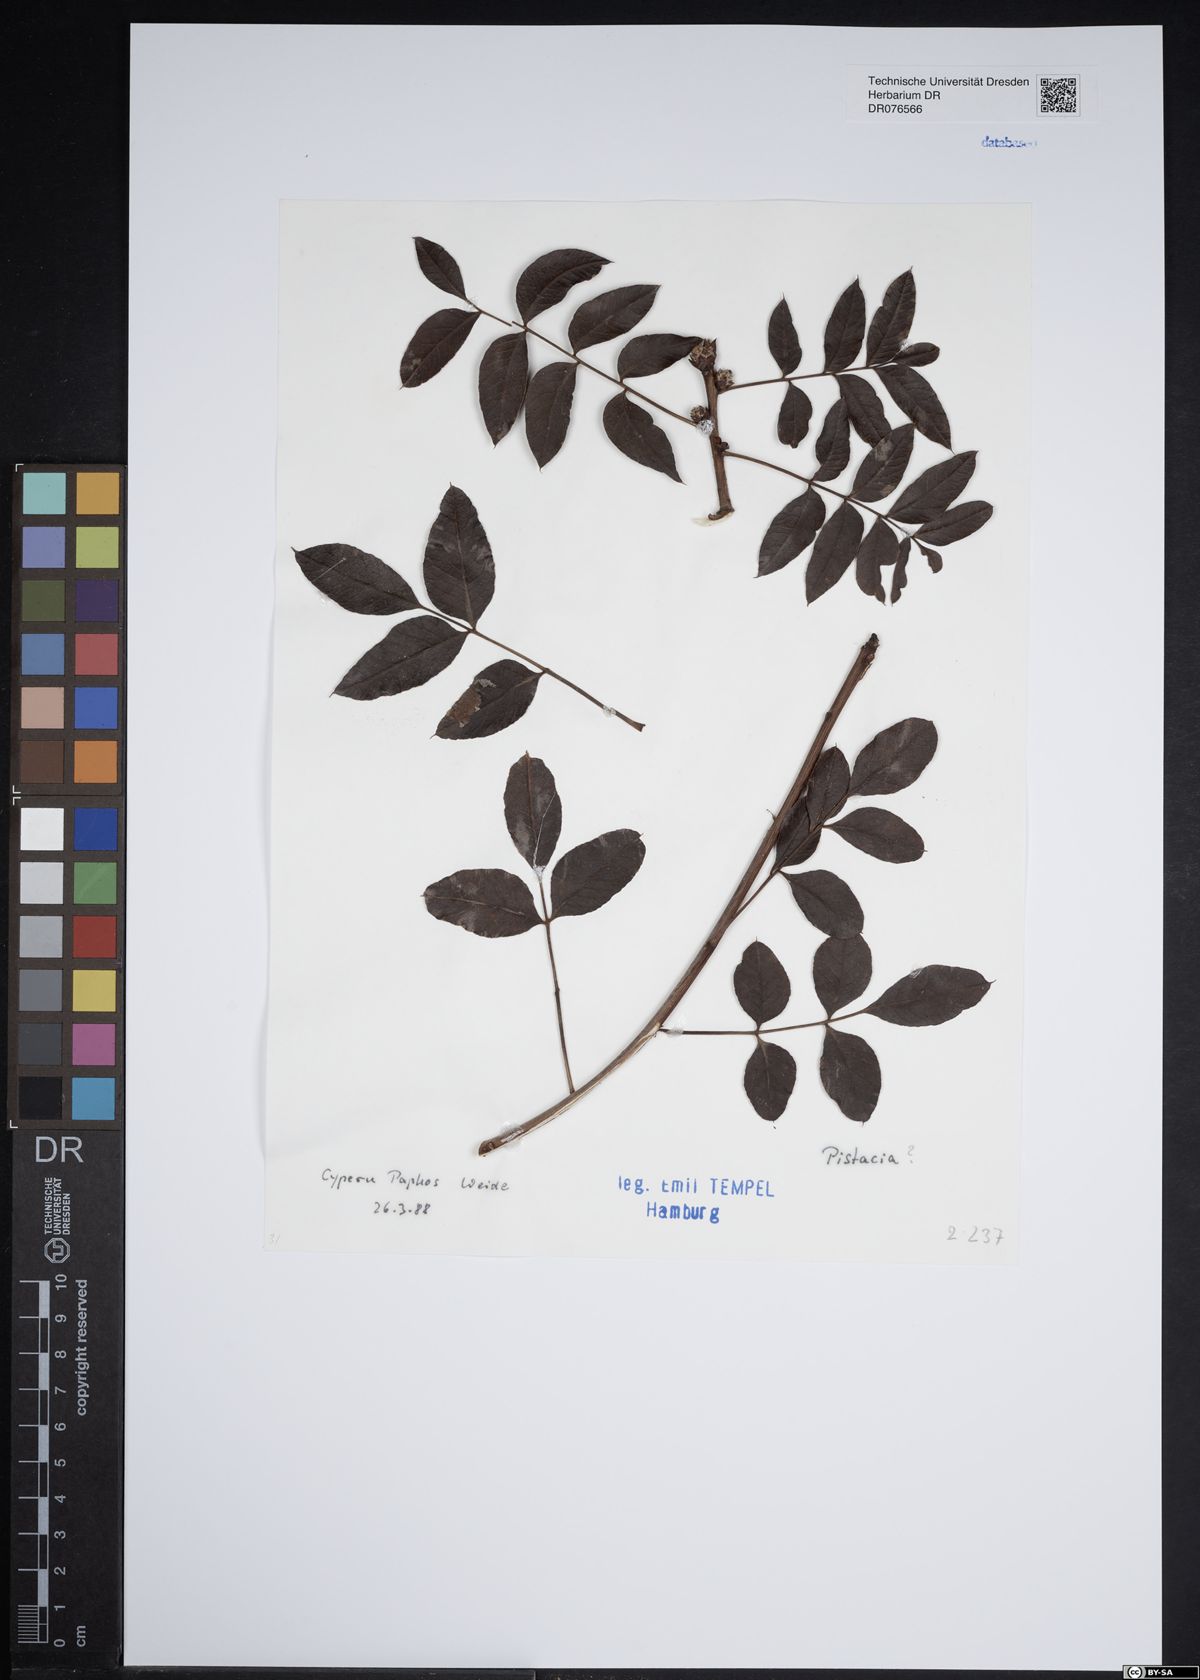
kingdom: Plantae
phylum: Tracheophyta
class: Magnoliopsida
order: Sapindales
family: Anacardiaceae
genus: Pistacia
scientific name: Pistacia
